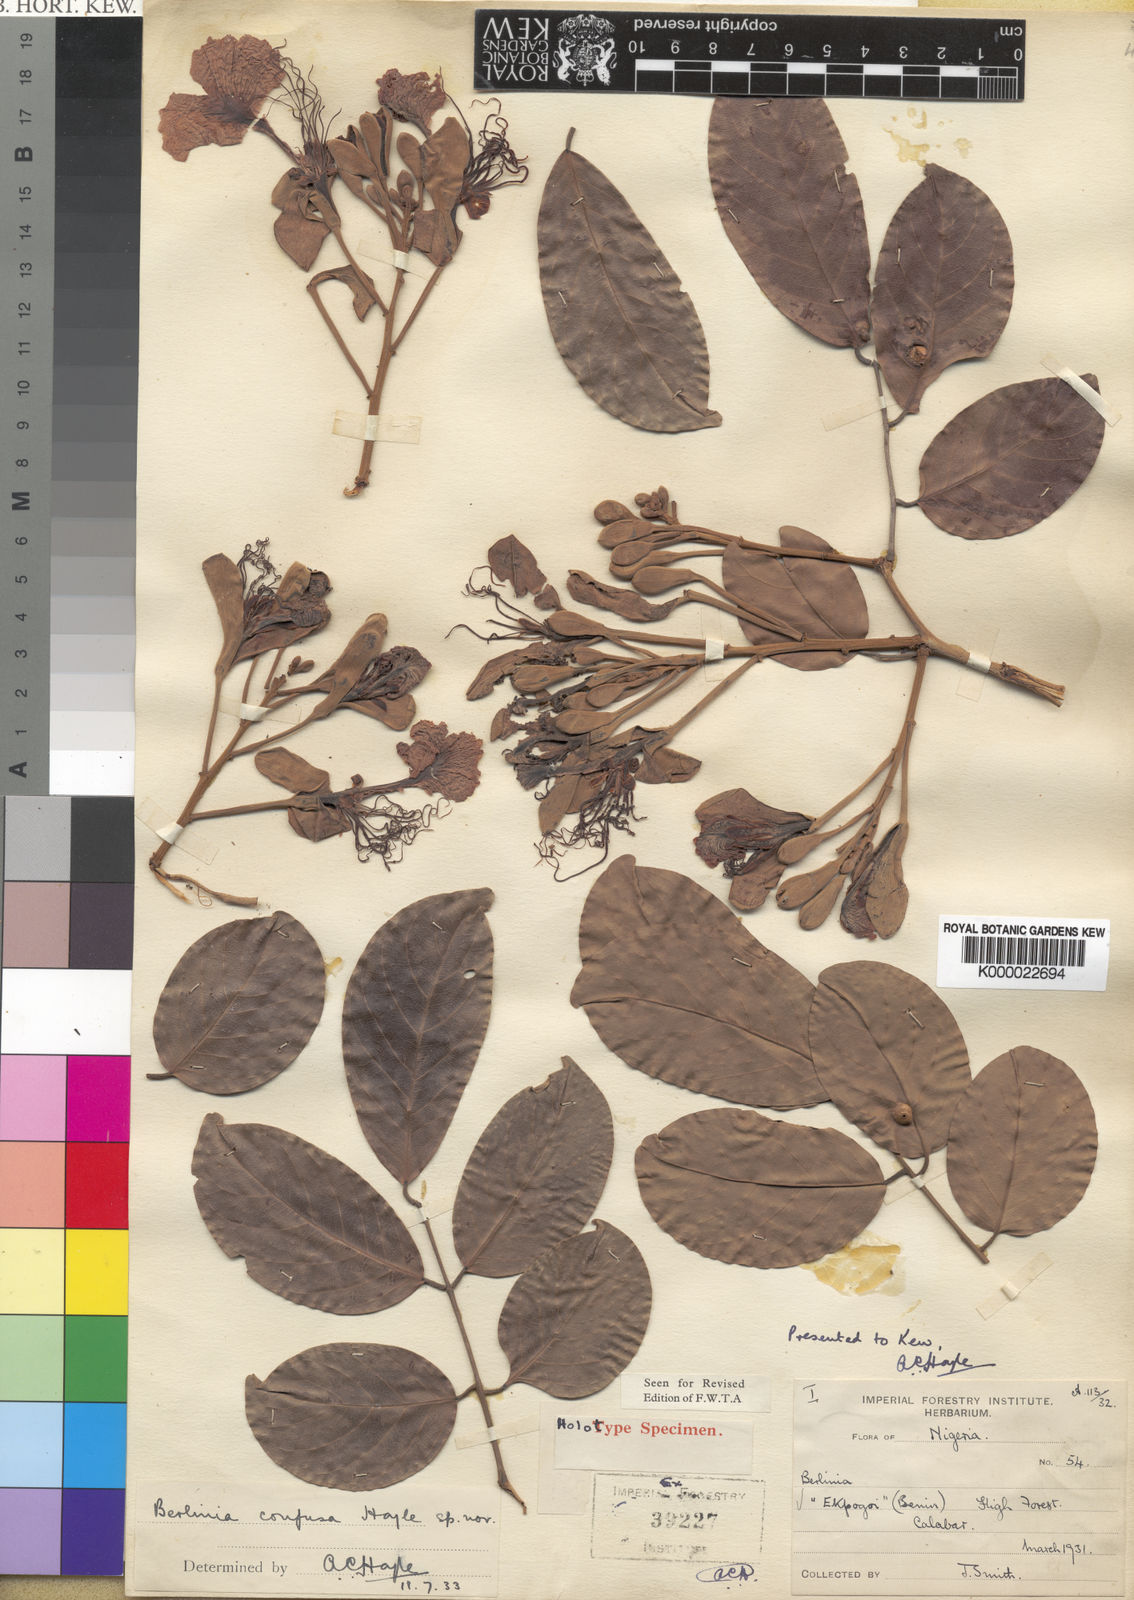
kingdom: Plantae
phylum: Tracheophyta
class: Magnoliopsida
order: Fabales
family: Fabaceae
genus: Berlinia
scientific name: Berlinia confusa
